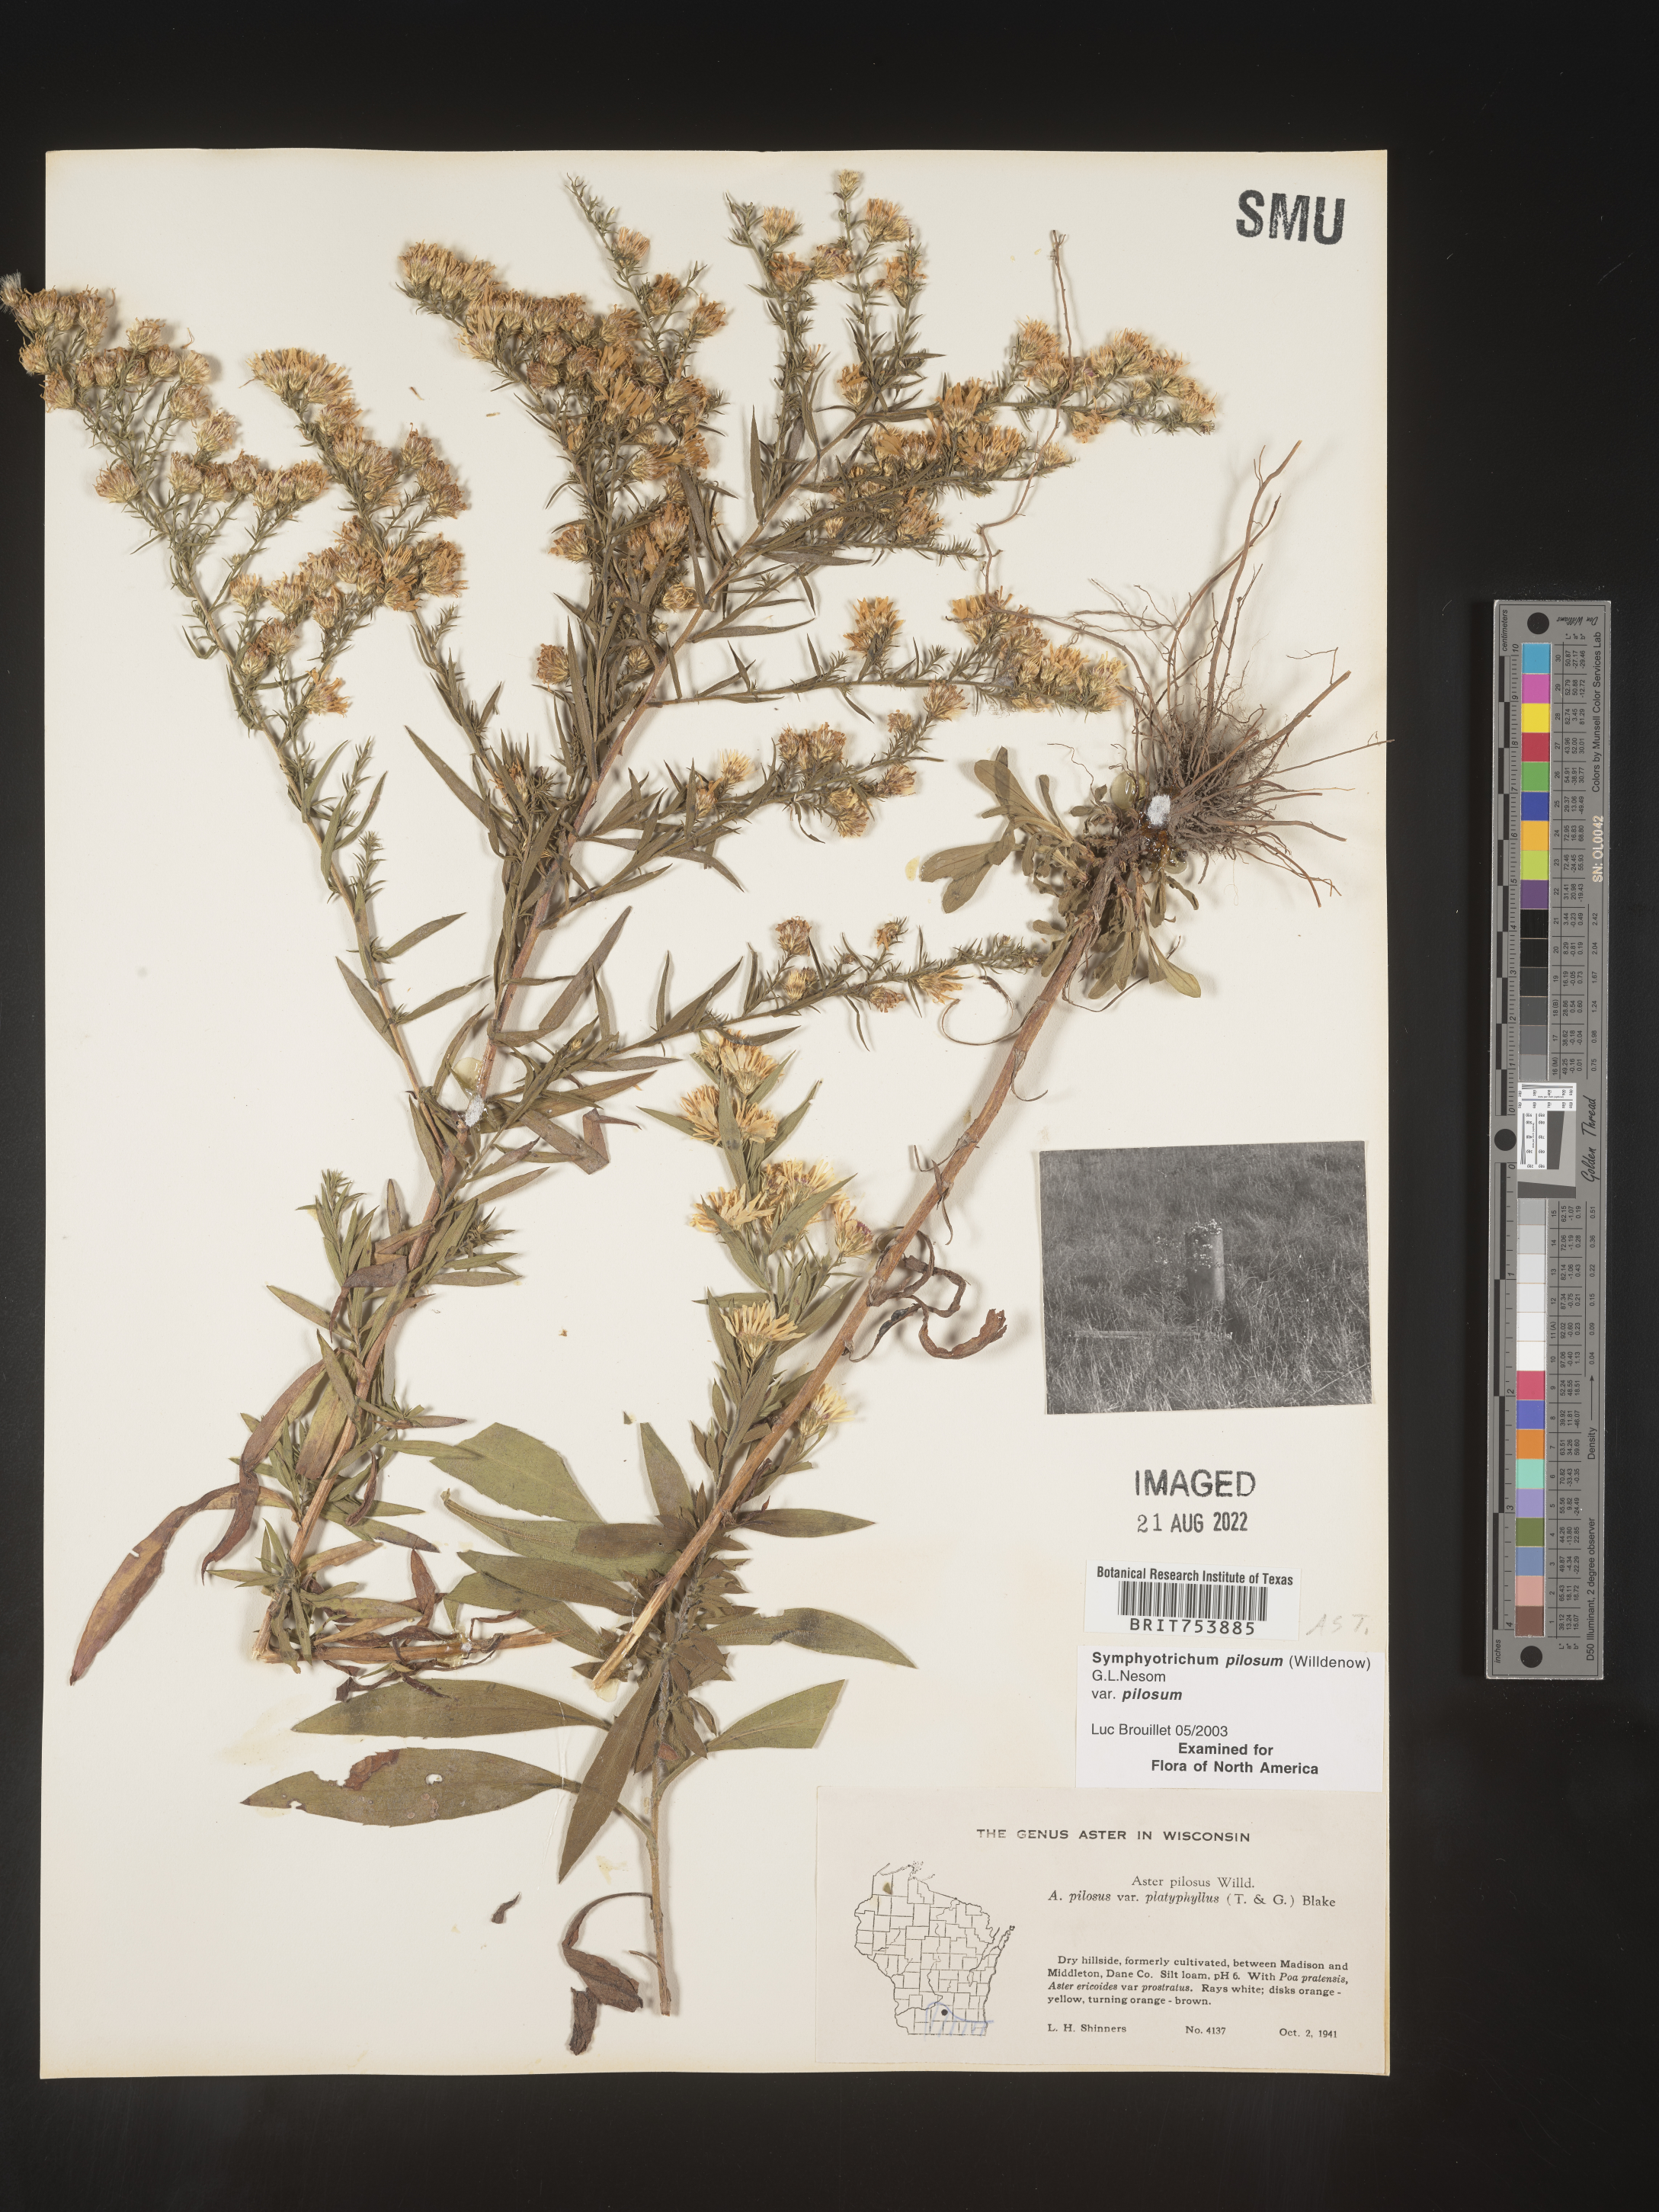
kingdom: Plantae
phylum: Tracheophyta
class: Magnoliopsida
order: Asterales
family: Asteraceae
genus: Symphyotrichum
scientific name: Symphyotrichum pilosum
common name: Awl aster
